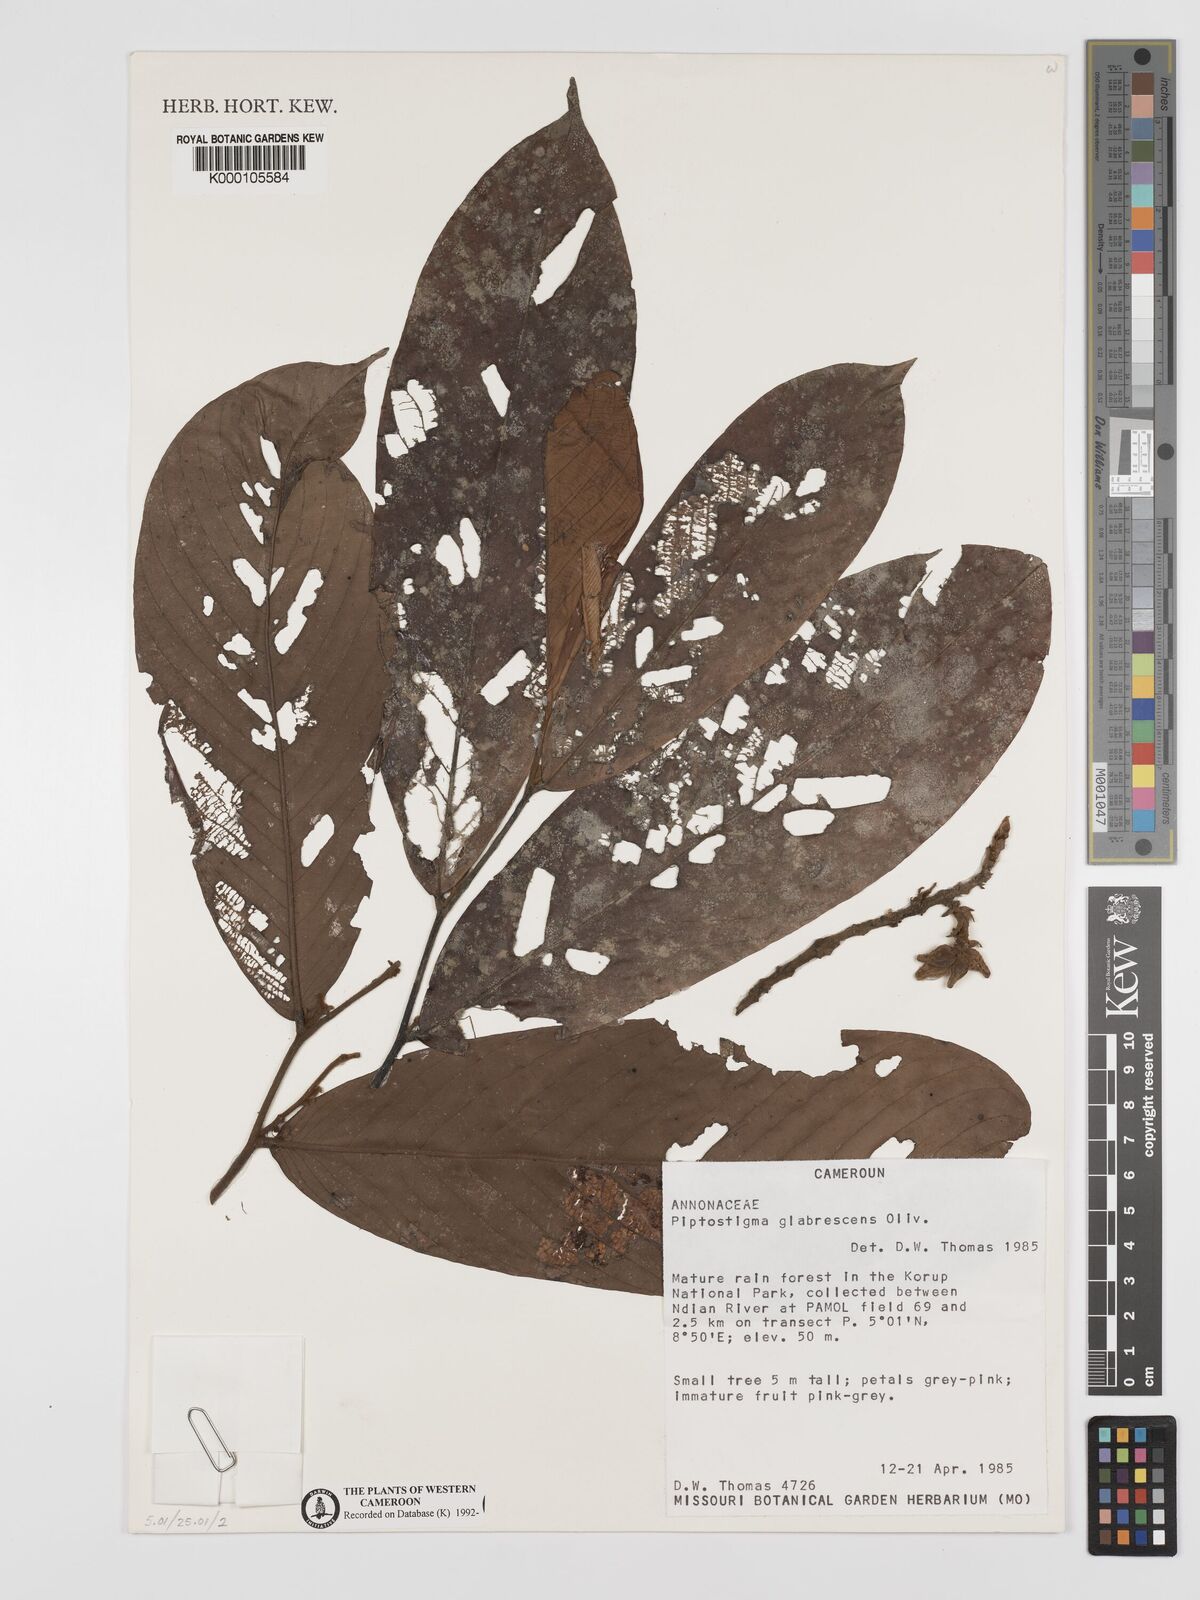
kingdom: Plantae
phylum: Tracheophyta
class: Magnoliopsida
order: Magnoliales
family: Annonaceae
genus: Piptostigma
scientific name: Piptostigma glabrescens
